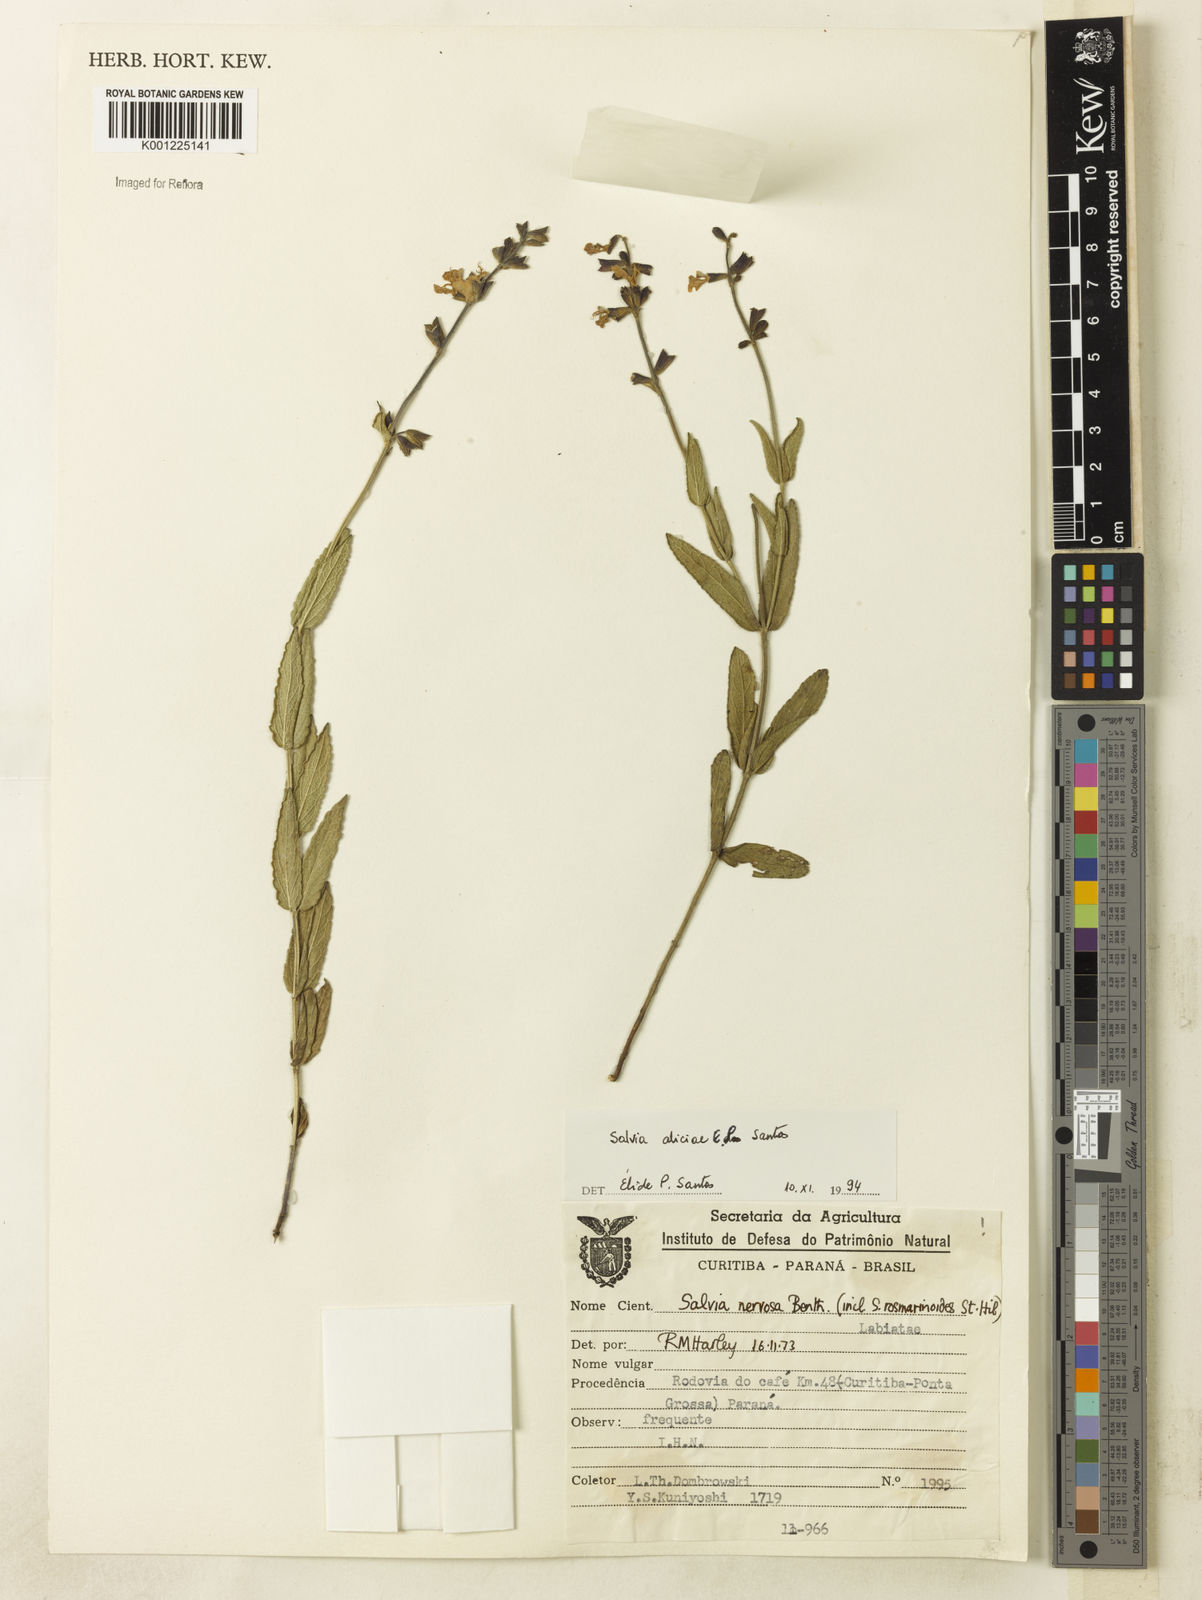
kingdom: Plantae
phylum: Tracheophyta
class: Magnoliopsida
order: Lamiales
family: Lamiaceae
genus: Salvia
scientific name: Salvia aliciae
